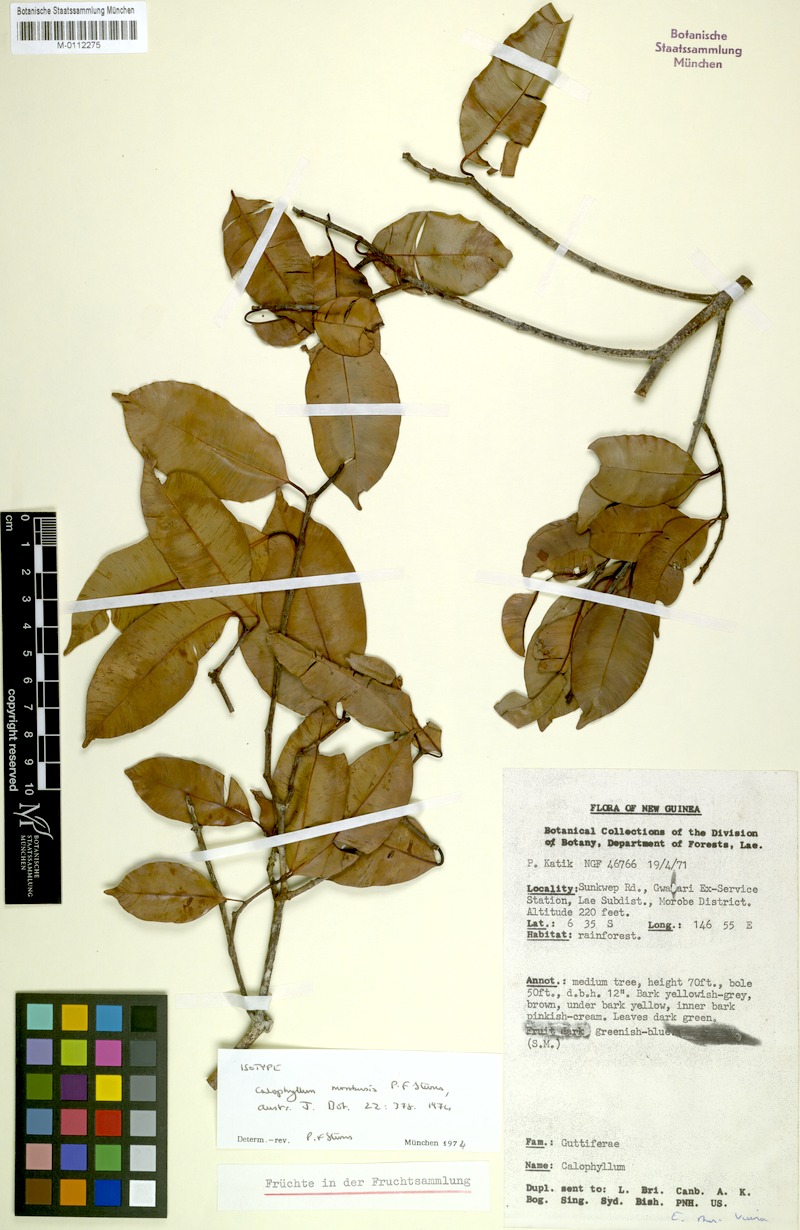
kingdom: Plantae
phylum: Tracheophyta
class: Magnoliopsida
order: Malpighiales
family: Calophyllaceae
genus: Calophyllum
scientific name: Calophyllum morobensis
